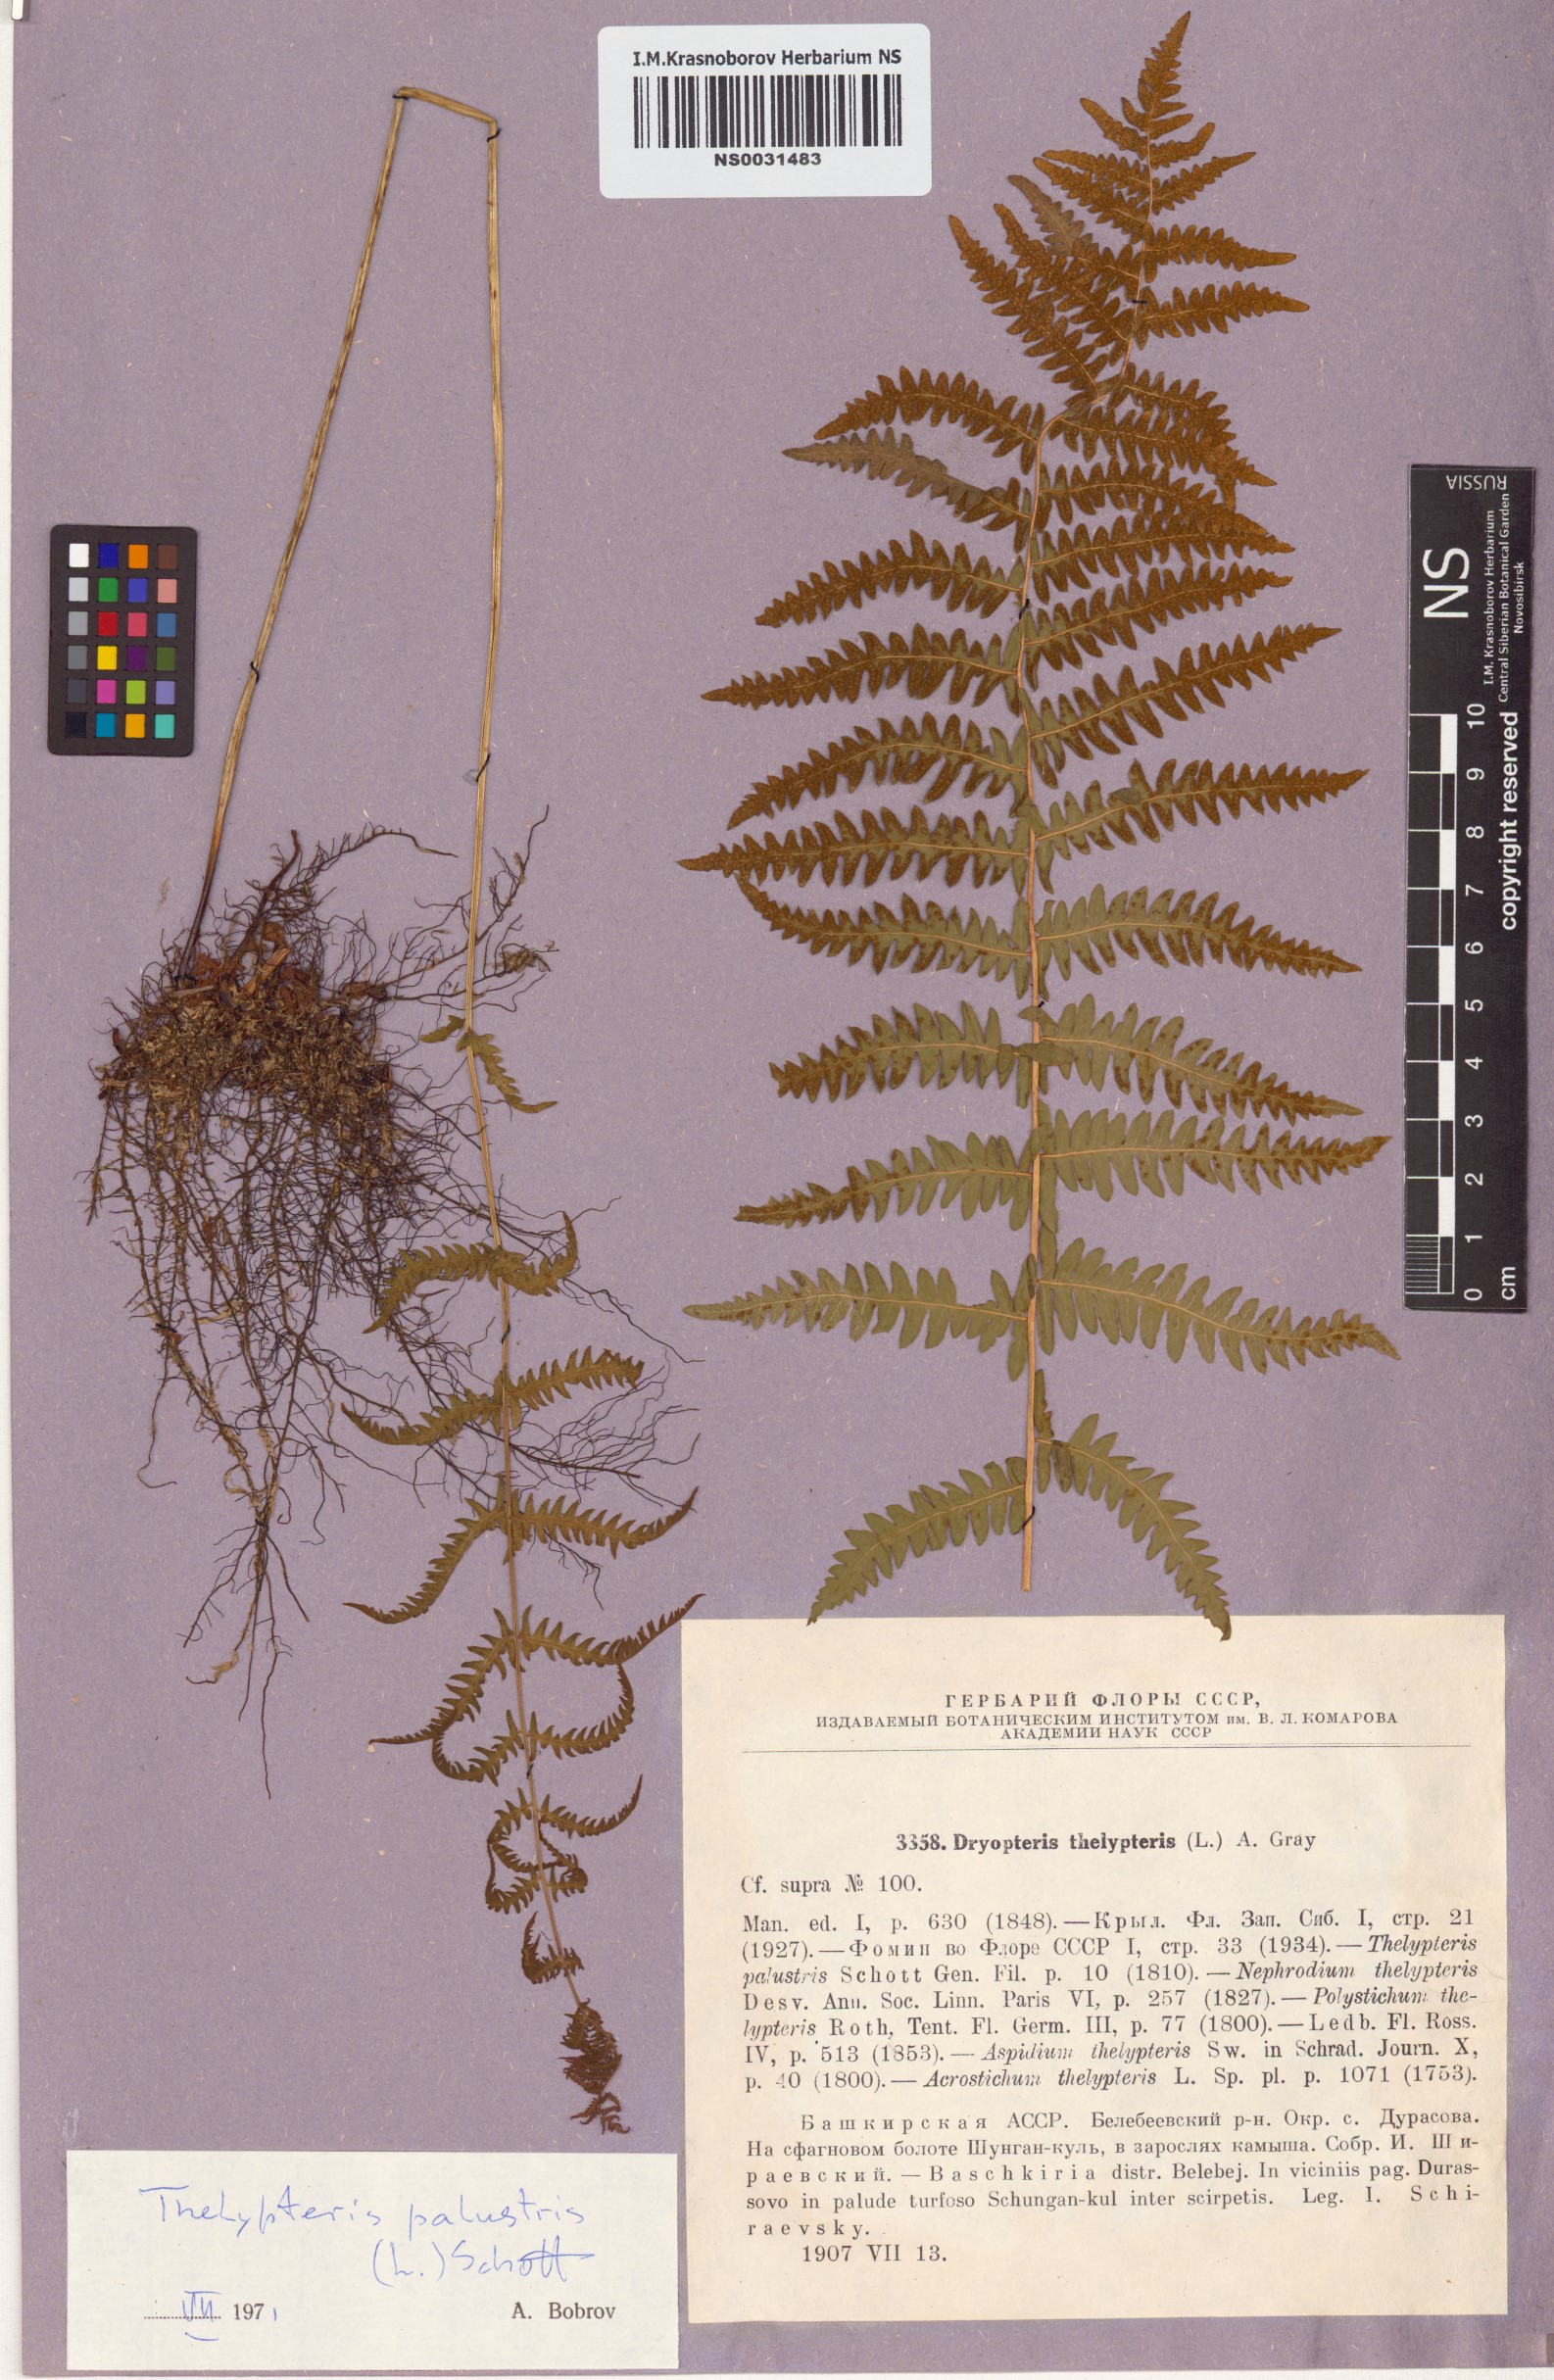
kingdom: Plantae
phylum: Tracheophyta
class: Polypodiopsida
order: Polypodiales
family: Thelypteridaceae
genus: Thelypteris
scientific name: Thelypteris palustris
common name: Marsh fern
